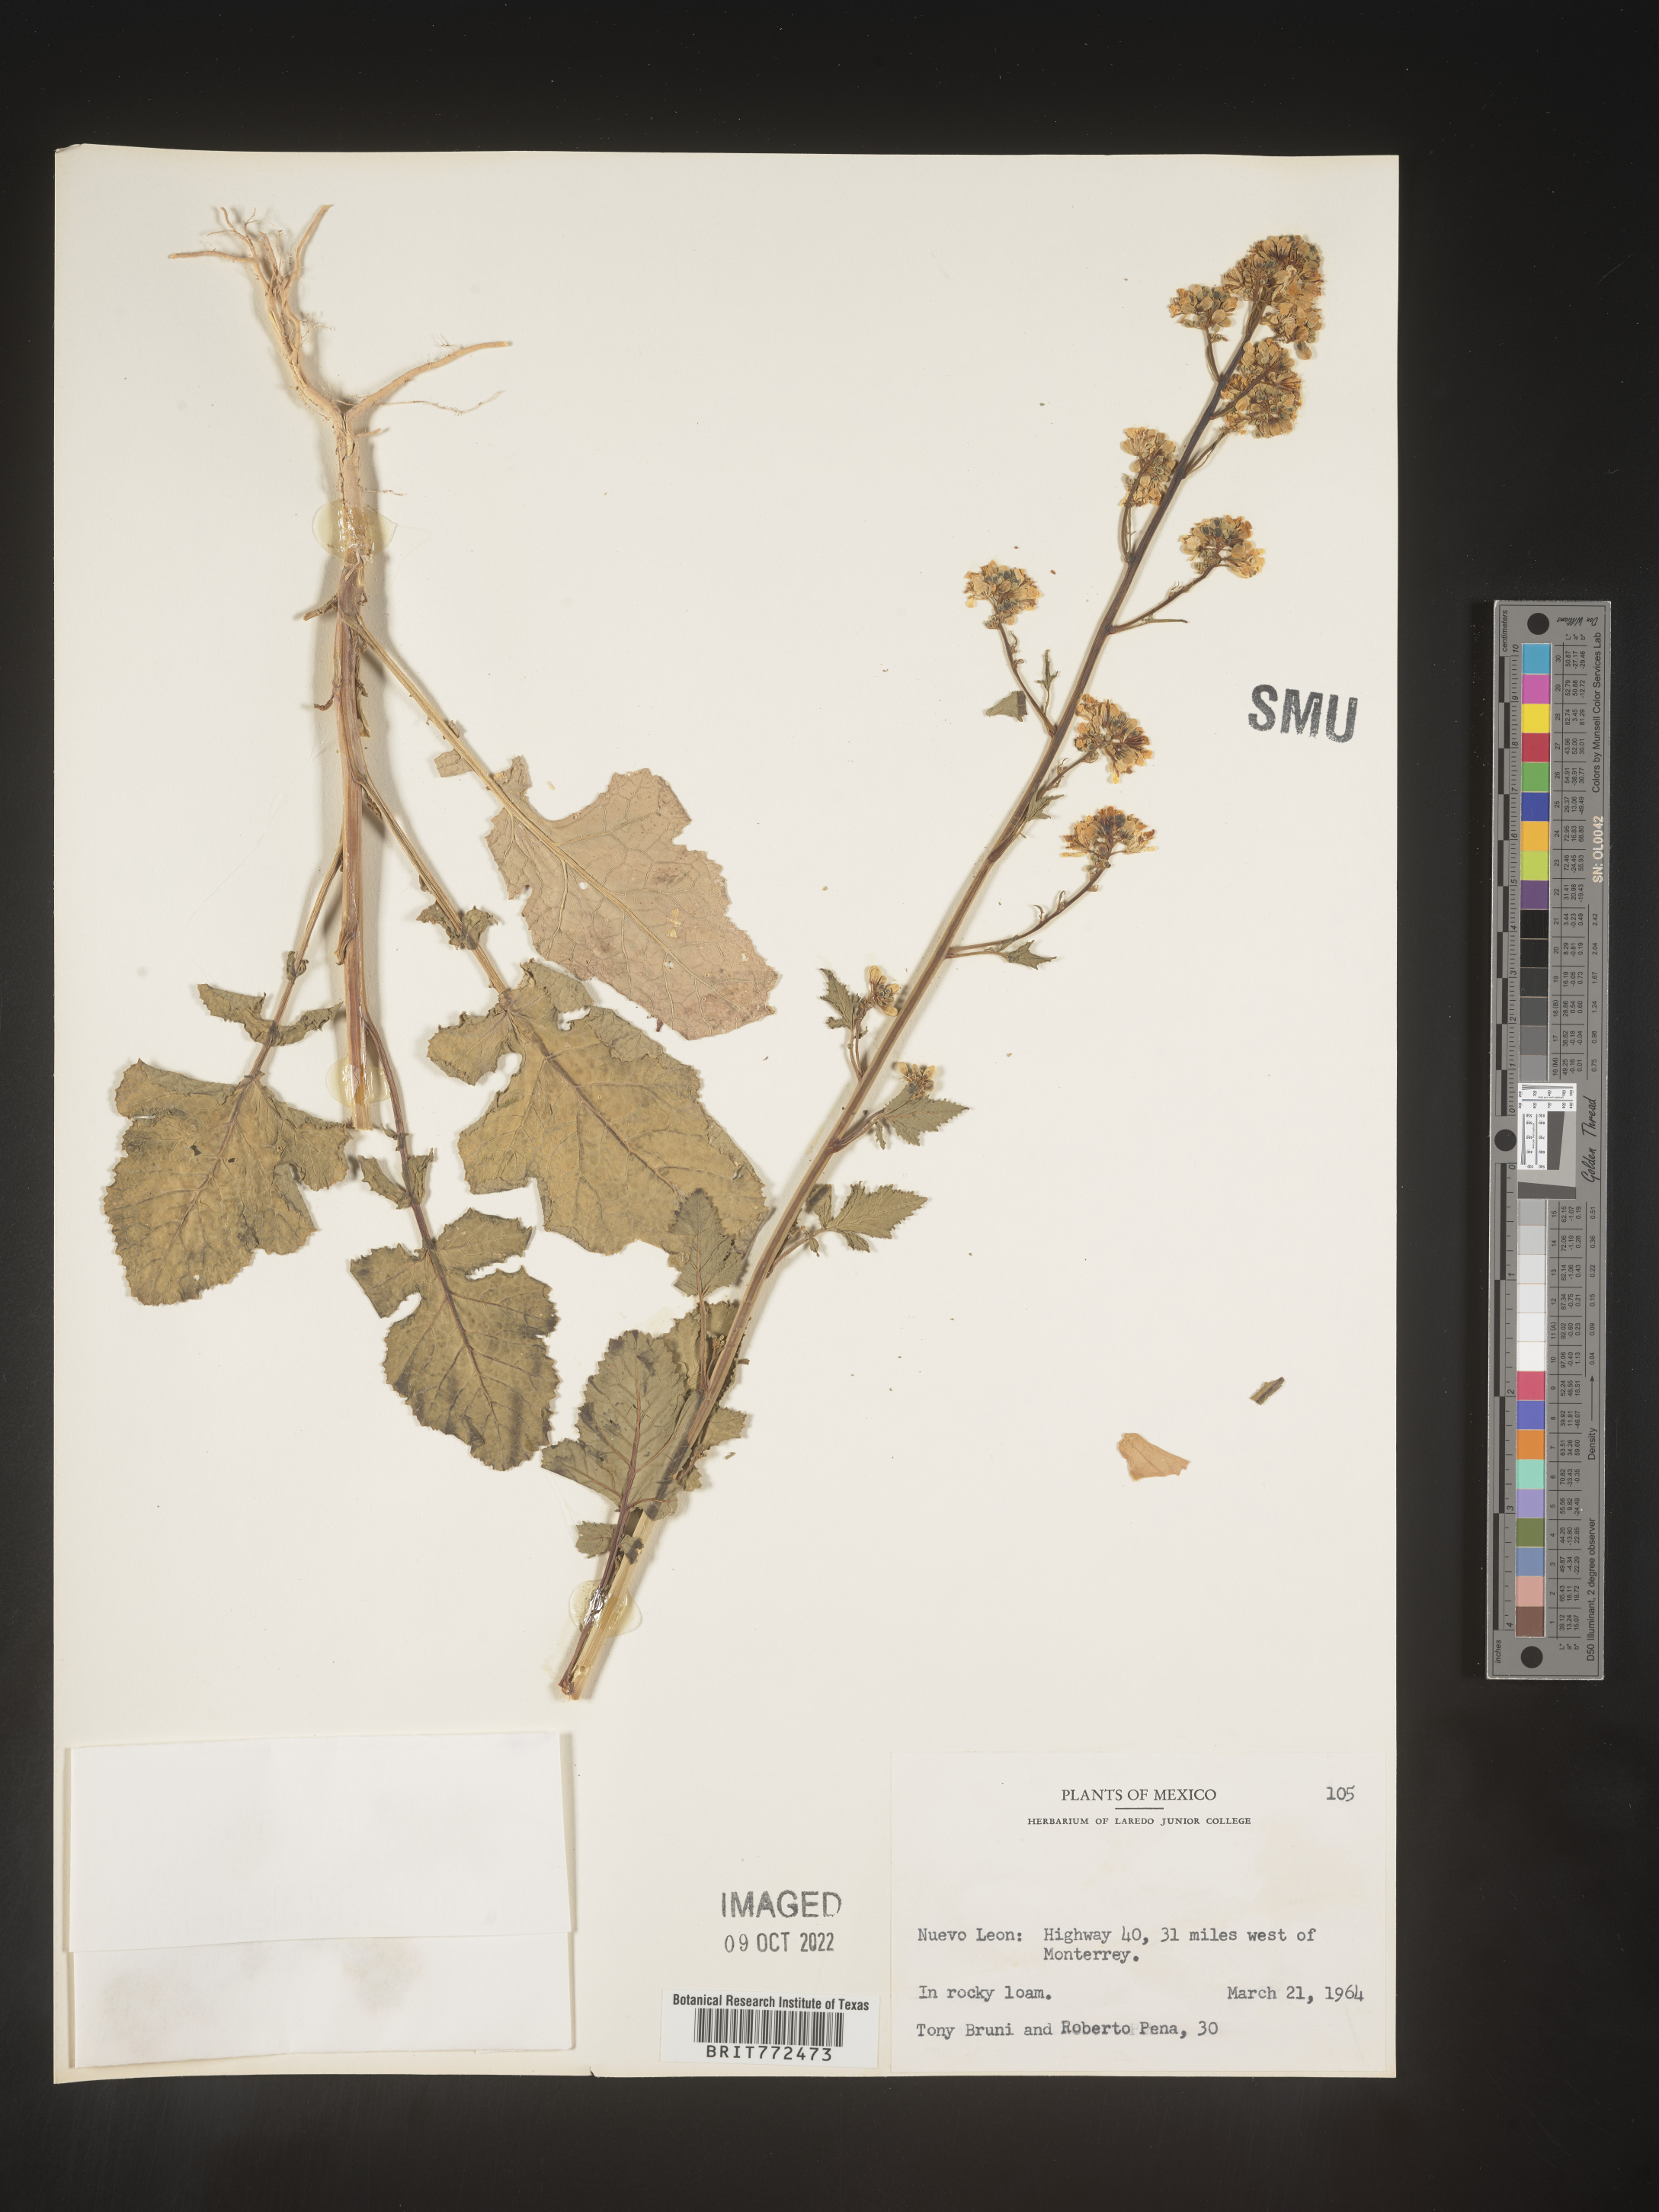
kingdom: Plantae
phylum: Tracheophyta
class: Magnoliopsida
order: Brassicales
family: Brassicaceae
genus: Brassica
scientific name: Brassica
